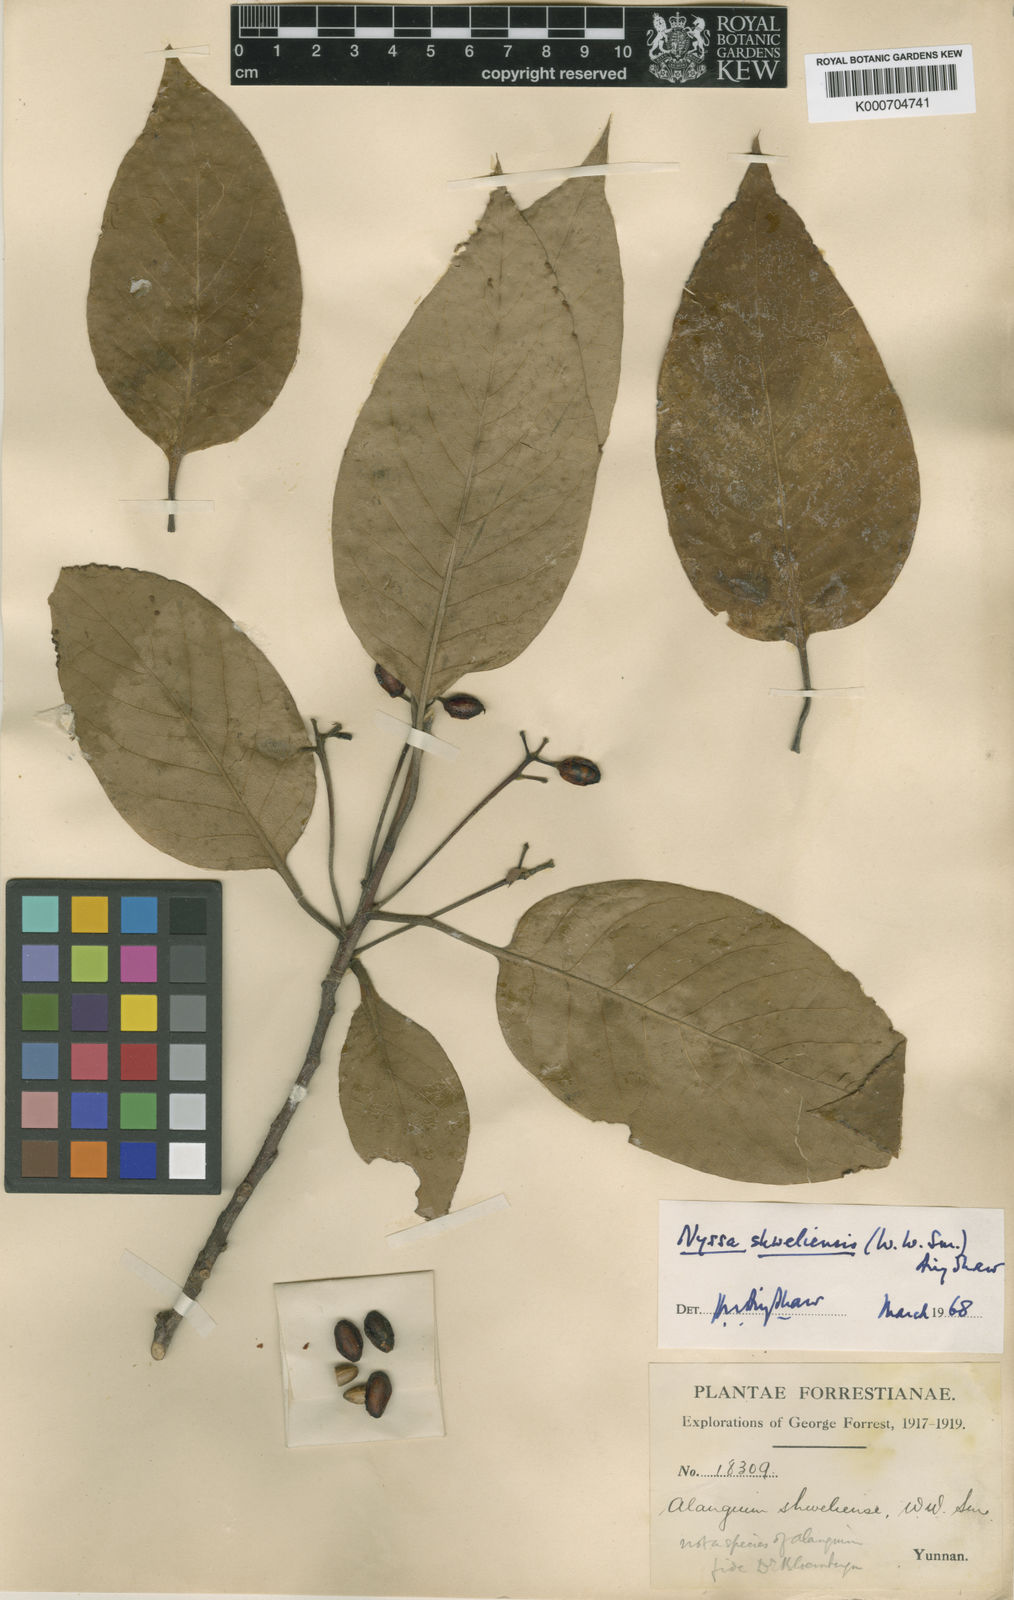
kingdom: Plantae
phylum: Tracheophyta
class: Magnoliopsida
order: Cornales
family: Nyssaceae
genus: Nyssa
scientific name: Nyssa sinensis
